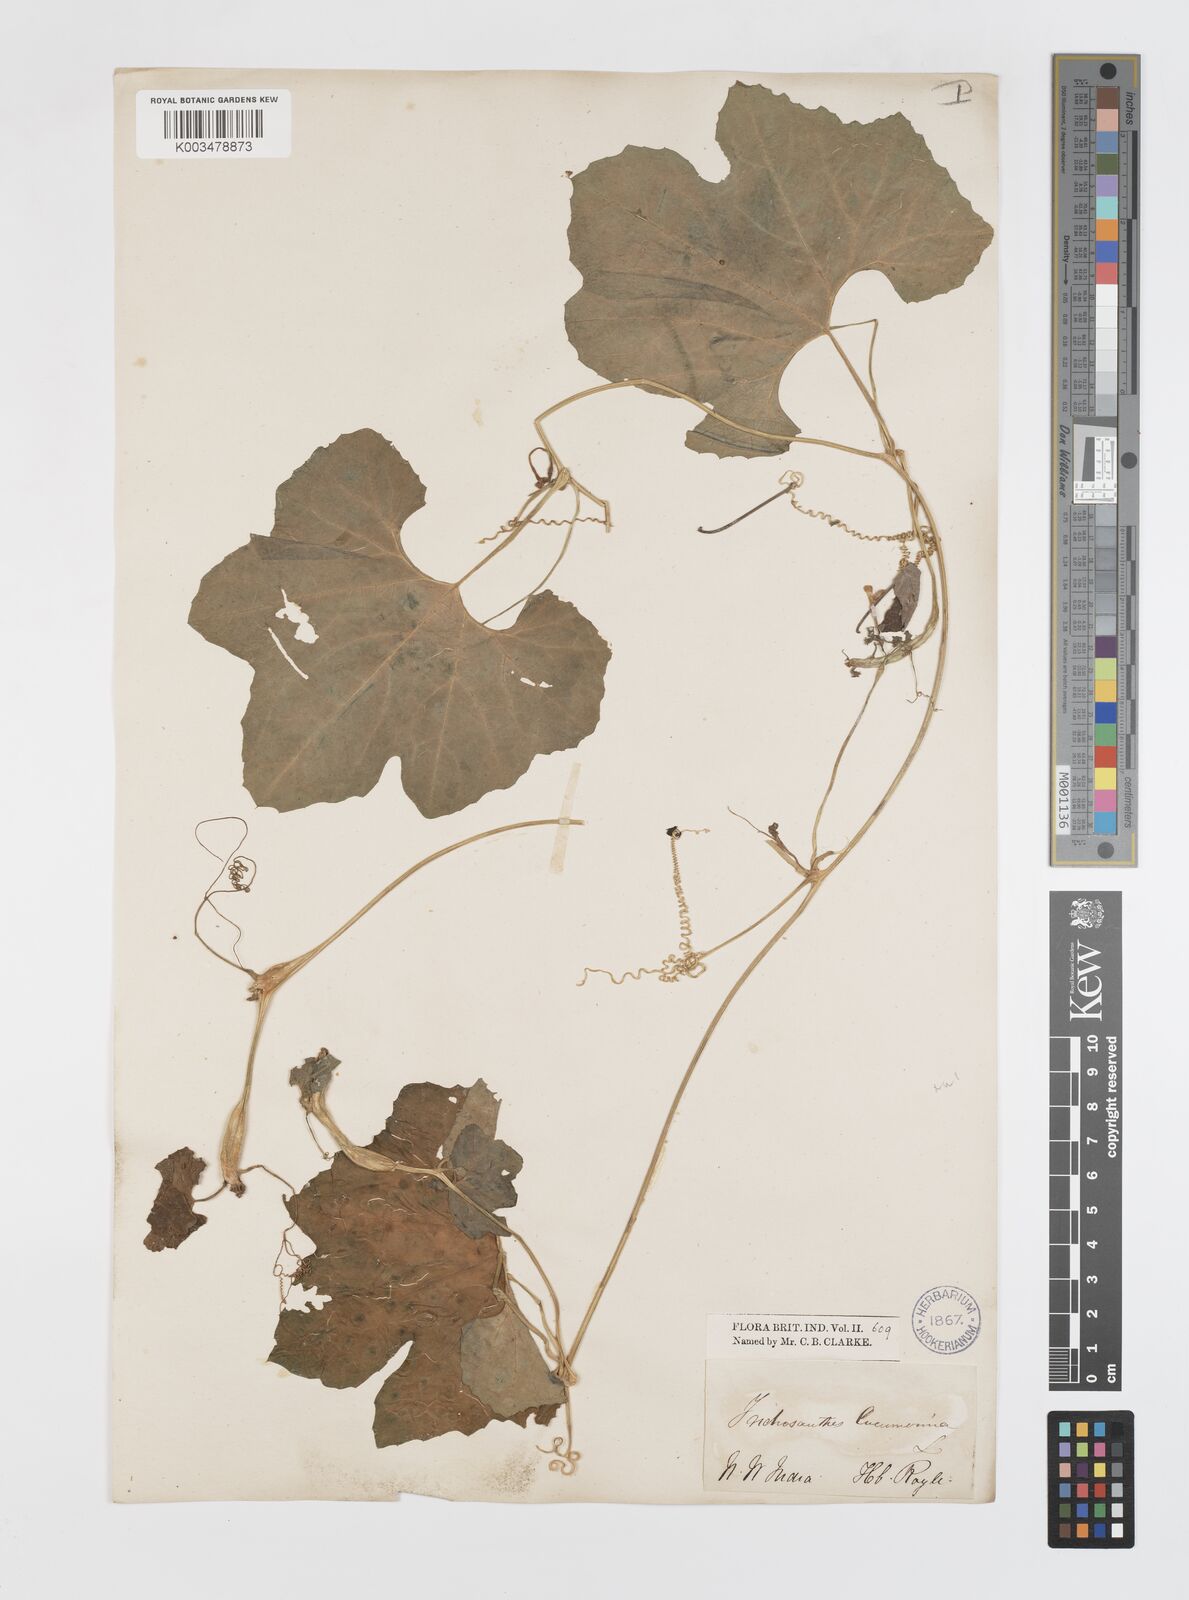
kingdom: Plantae
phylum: Tracheophyta
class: Magnoliopsida
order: Cucurbitales
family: Cucurbitaceae
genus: Trichosanthes
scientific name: Trichosanthes cucumerina
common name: Snakegourd
